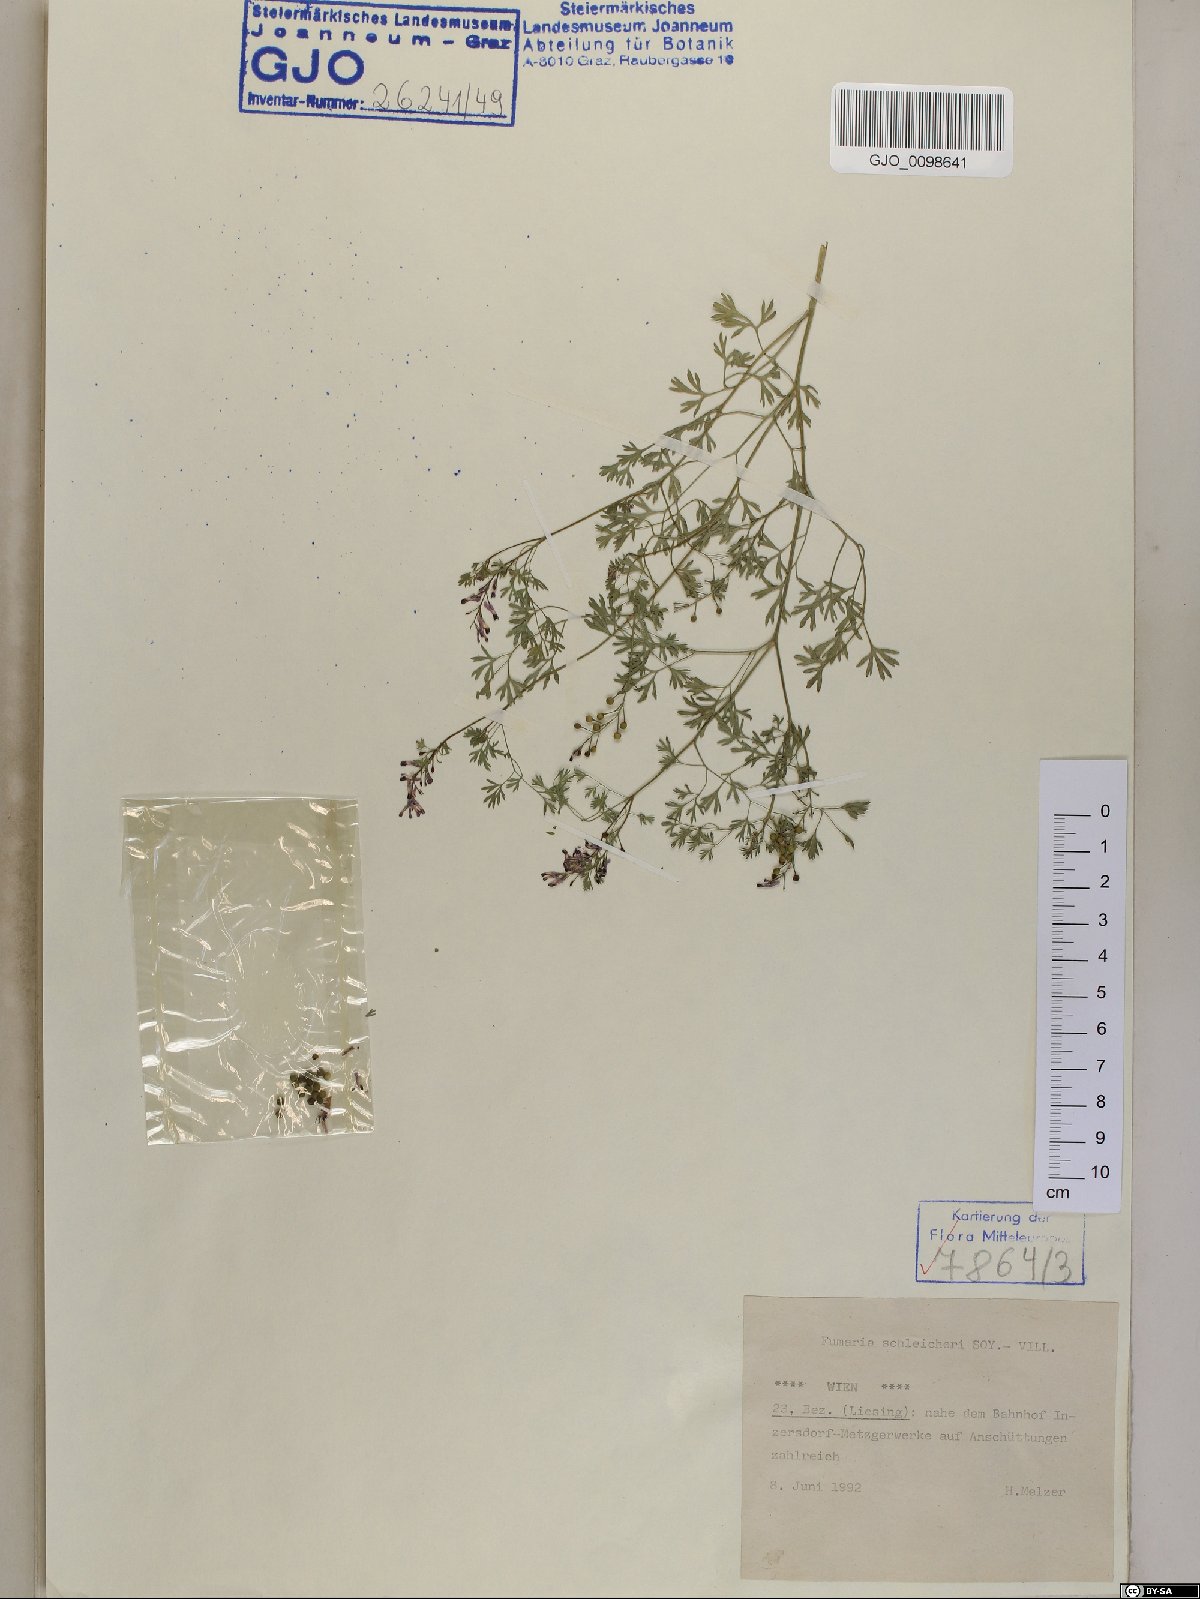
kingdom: Plantae
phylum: Tracheophyta
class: Magnoliopsida
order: Ranunculales
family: Papaveraceae
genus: Fumaria
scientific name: Fumaria schleicheri
